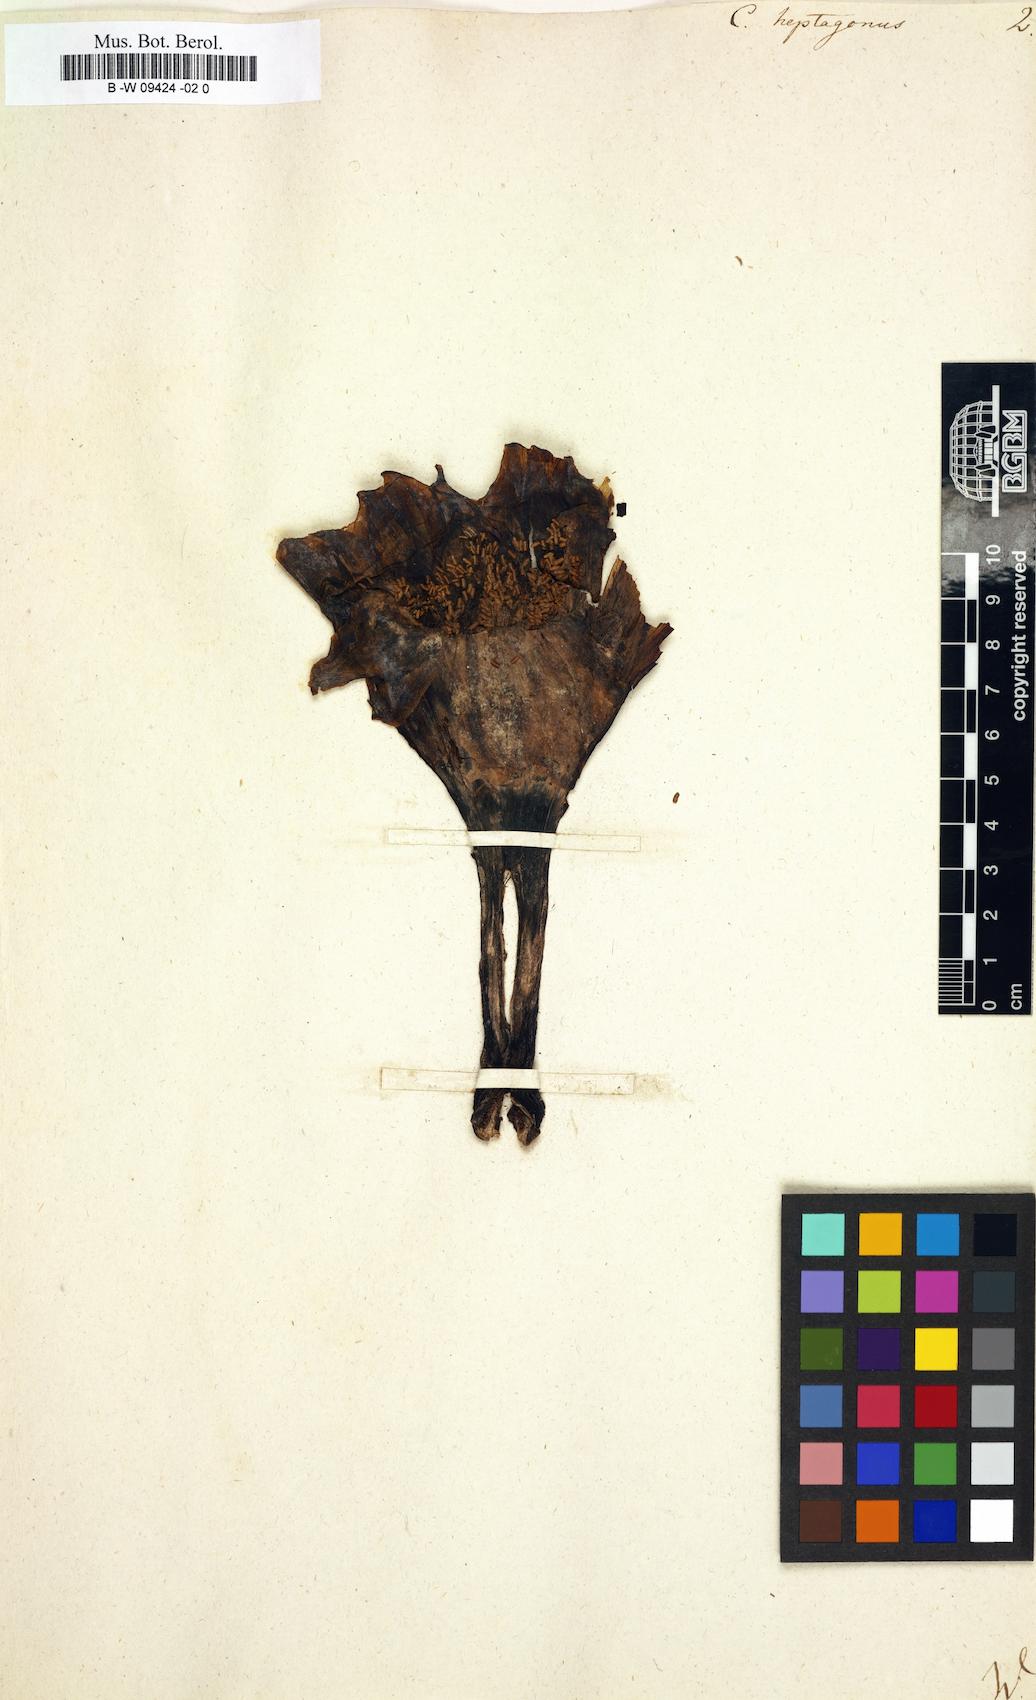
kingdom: Plantae
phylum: Tracheophyta
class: Magnoliopsida
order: Caryophyllales
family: Cactaceae
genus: Stenocereus
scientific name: Stenocereus heptagonus
